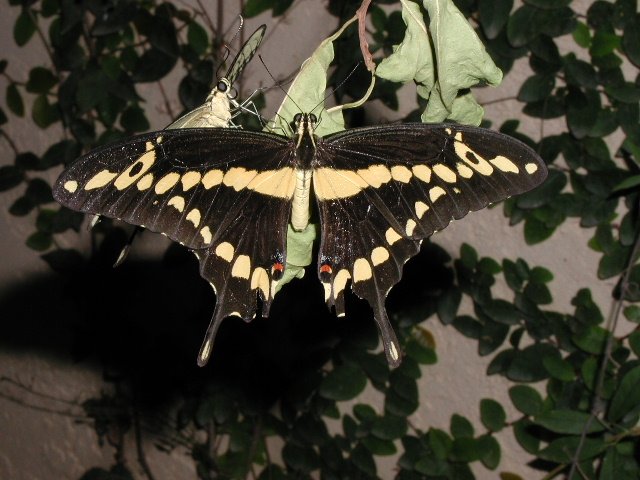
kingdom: Animalia
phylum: Arthropoda
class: Insecta
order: Lepidoptera
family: Papilionidae
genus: Papilio
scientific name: Papilio rumiko
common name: Western Giant Swallowtail
